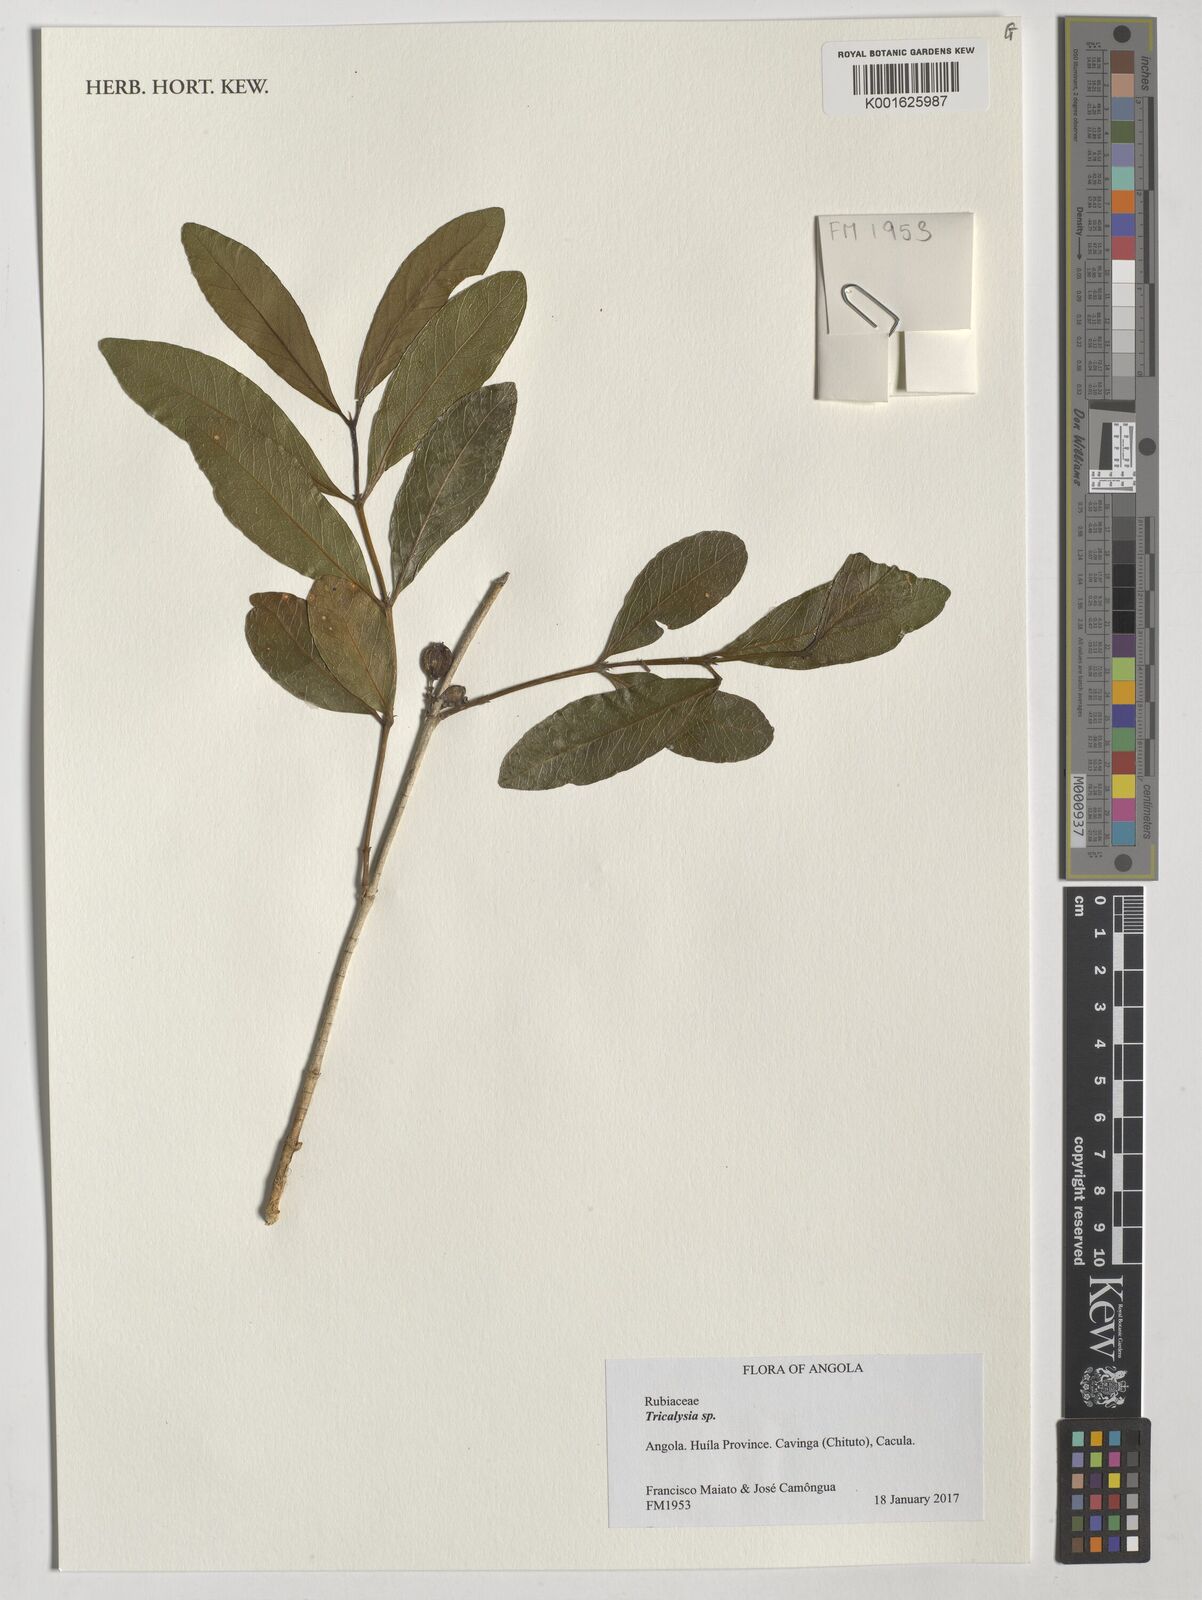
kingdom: Plantae
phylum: Tracheophyta
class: Magnoliopsida
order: Gentianales
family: Rubiaceae
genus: Tricalysia
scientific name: Tricalysia
